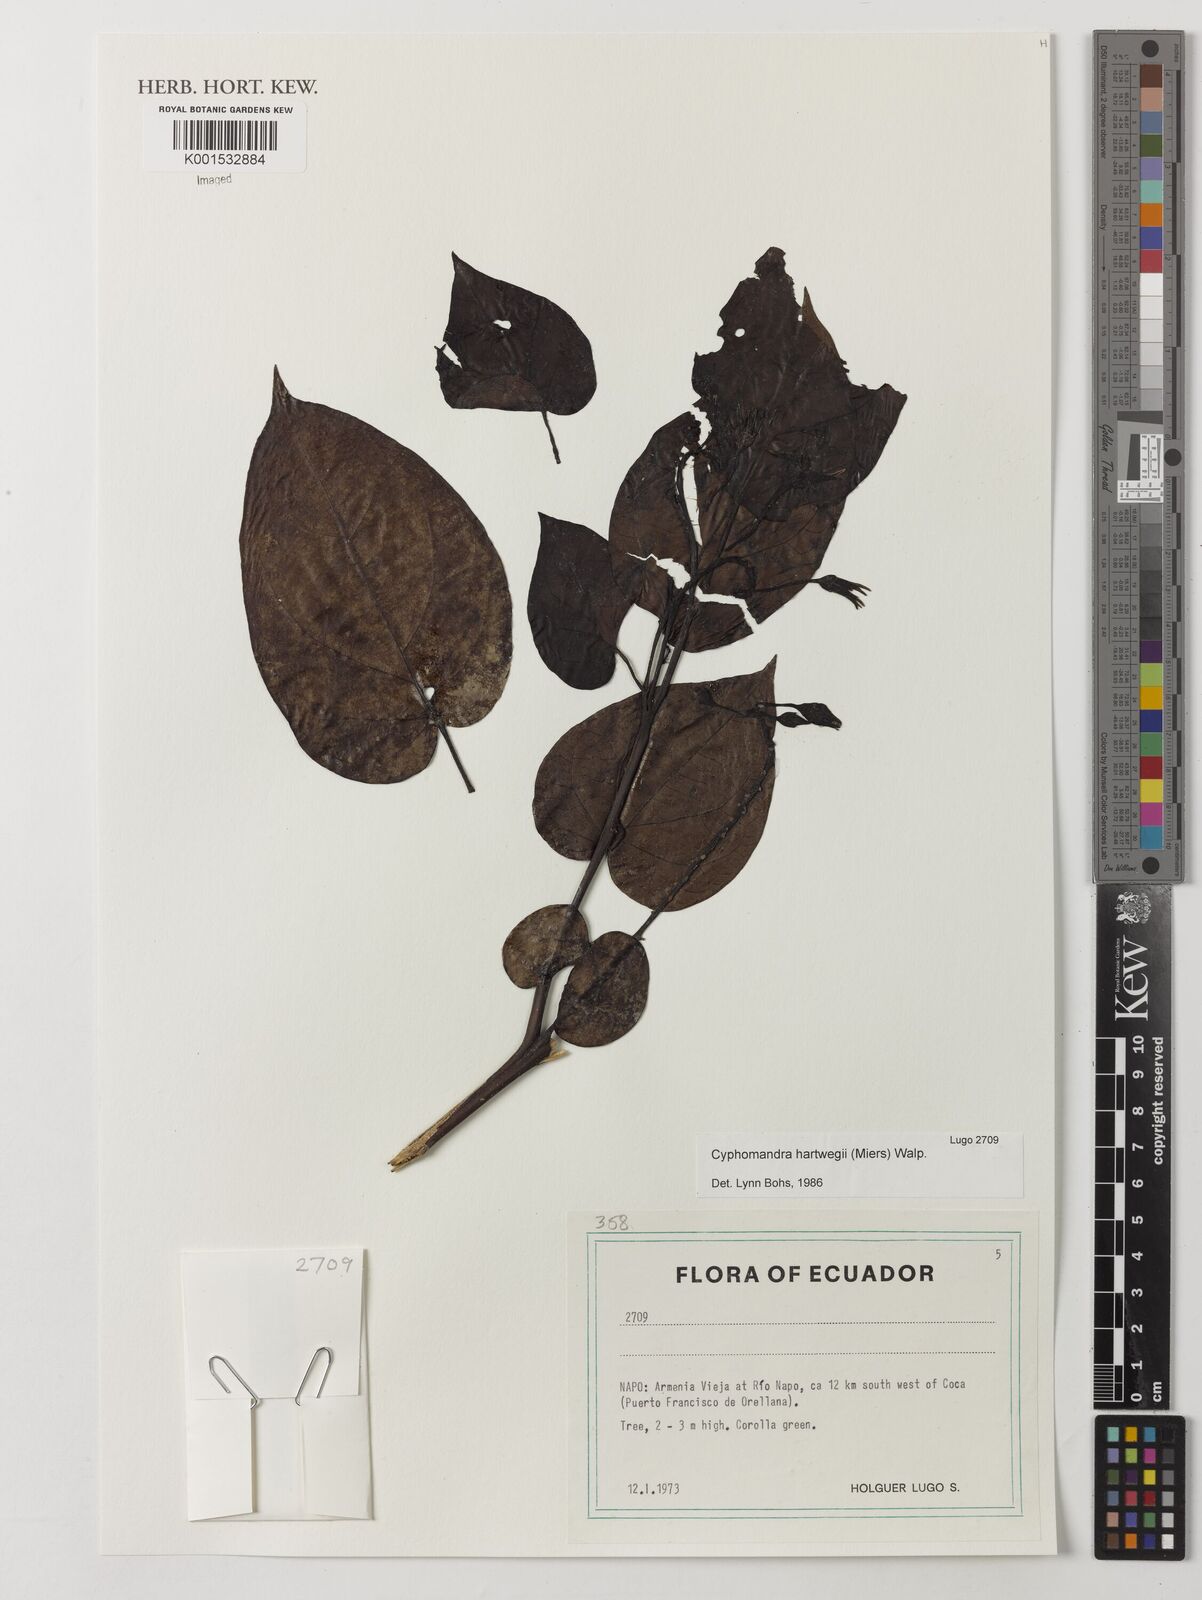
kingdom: Plantae
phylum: Tracheophyta
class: Magnoliopsida
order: Solanales
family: Solanaceae
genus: Solanum
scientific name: Solanum splendens
